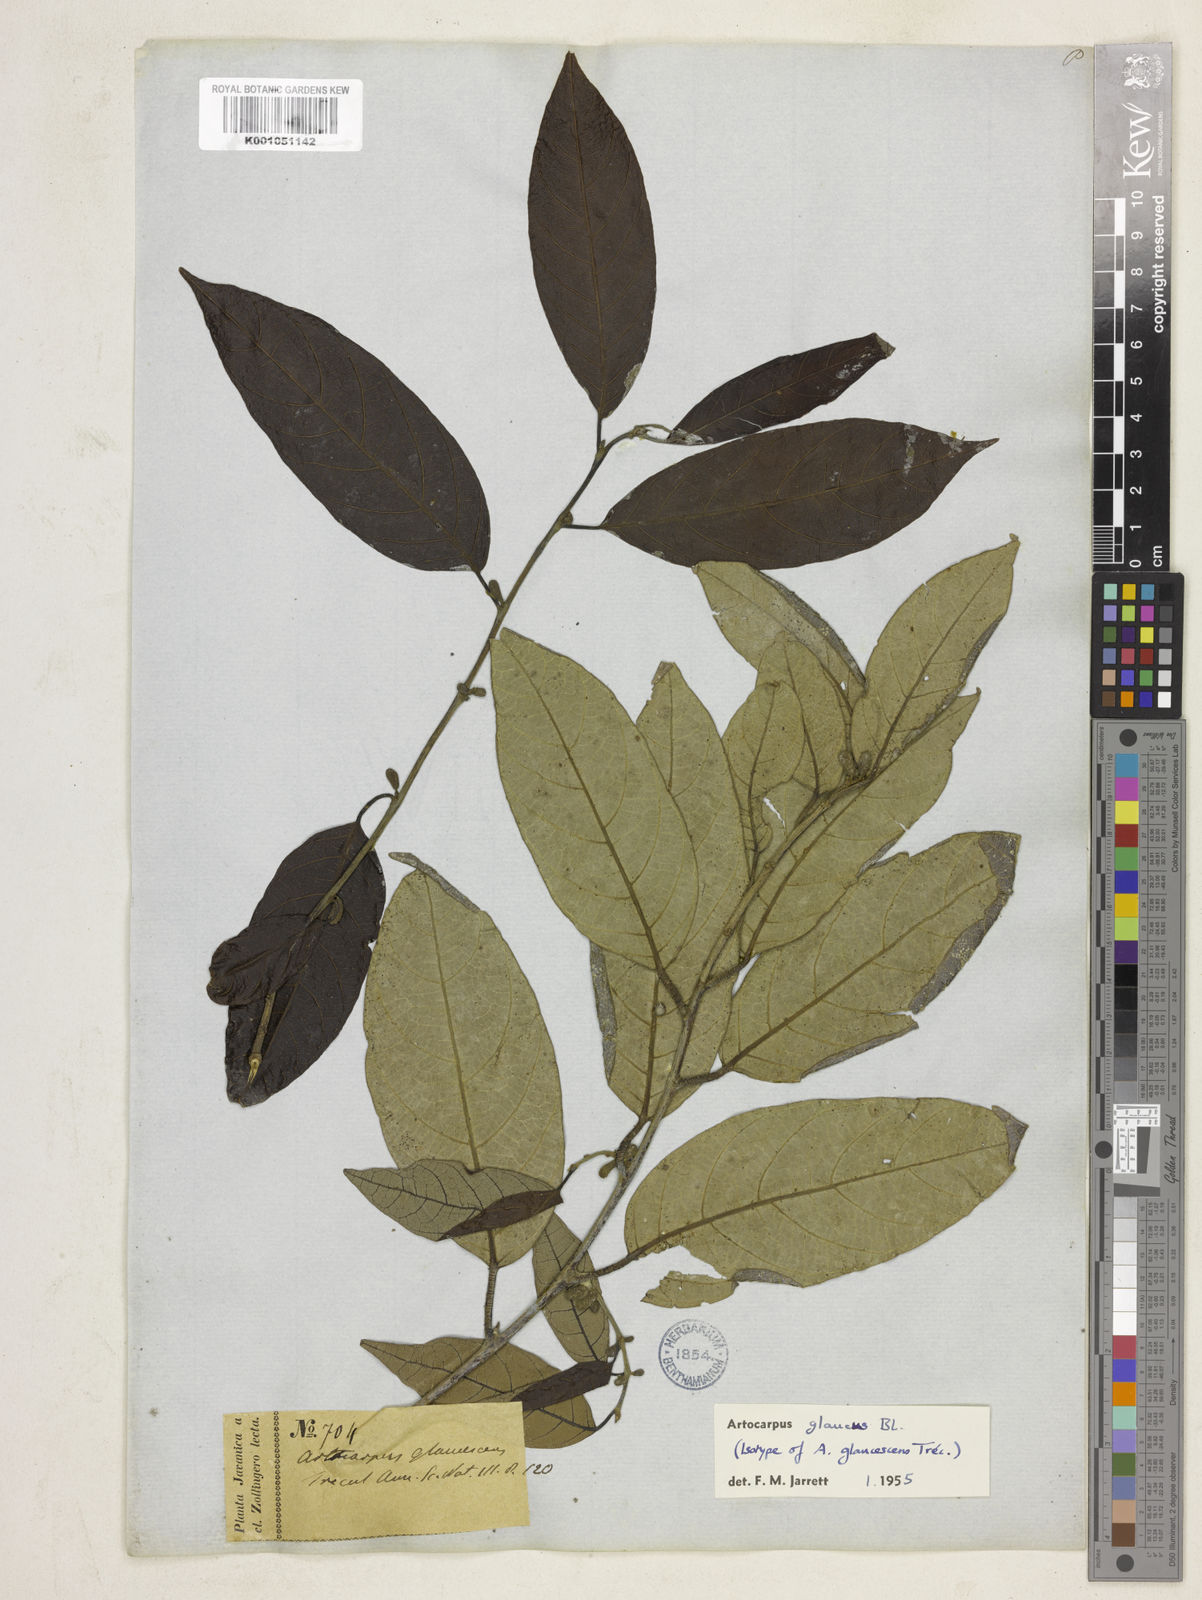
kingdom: Plantae
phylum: Tracheophyta
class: Magnoliopsida
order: Rosales
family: Moraceae
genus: Artocarpus
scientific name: Artocarpus glaucus
